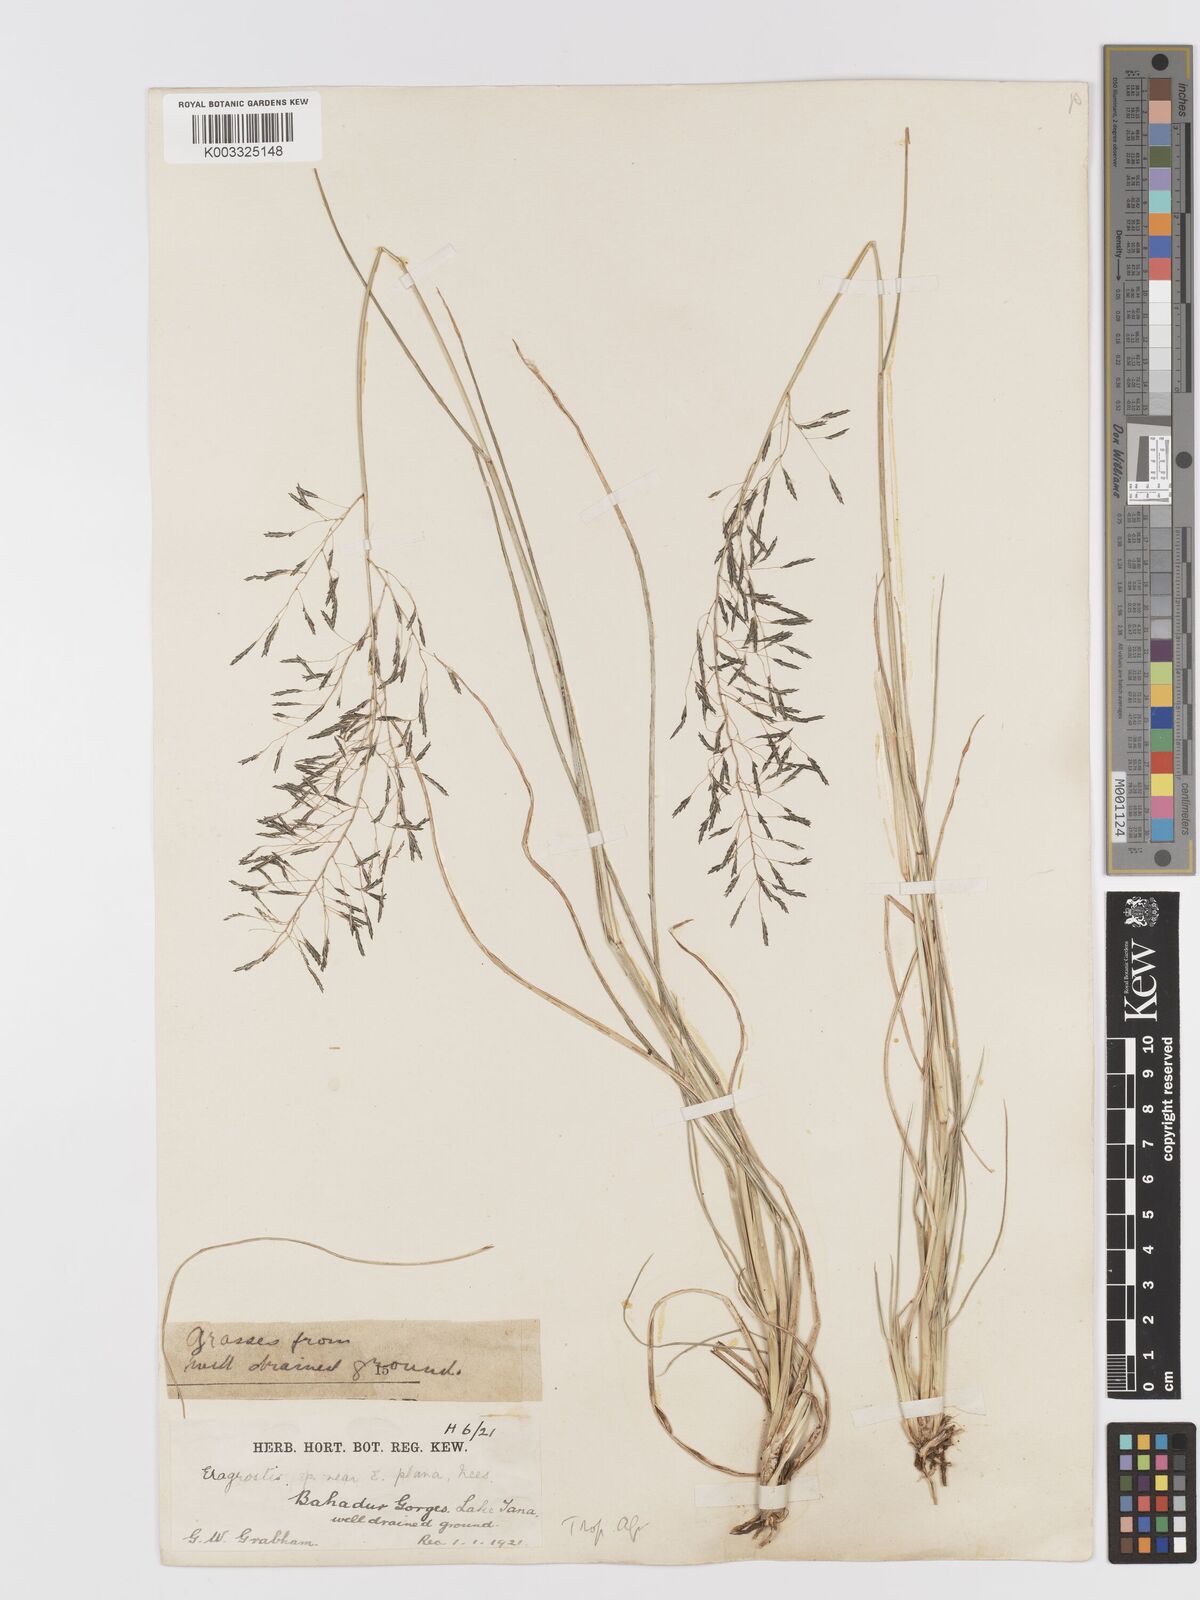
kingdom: Plantae
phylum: Tracheophyta
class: Liliopsida
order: Poales
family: Poaceae
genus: Eragrostis
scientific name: Eragrostis tenuifolia
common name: Elastic grass
